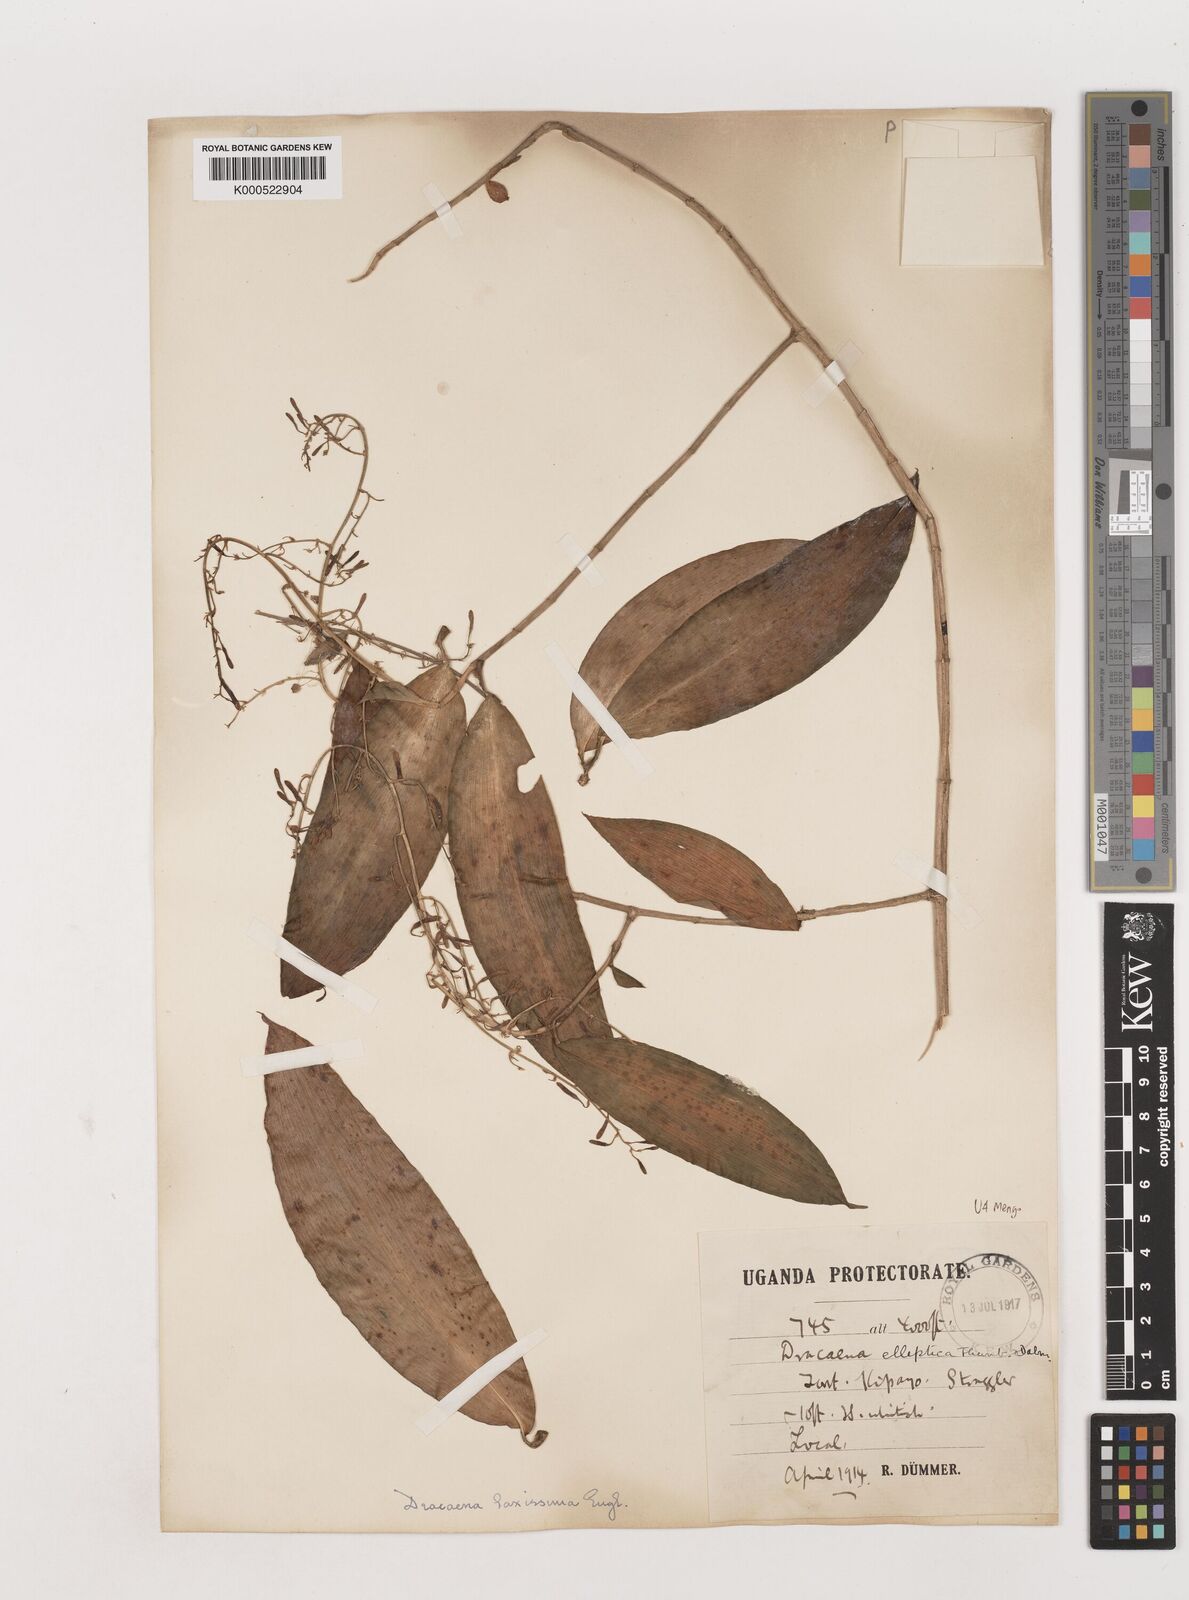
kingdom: Plantae
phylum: Tracheophyta
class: Liliopsida
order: Asparagales
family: Asparagaceae
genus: Dracaena
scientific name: Dracaena laxissima
